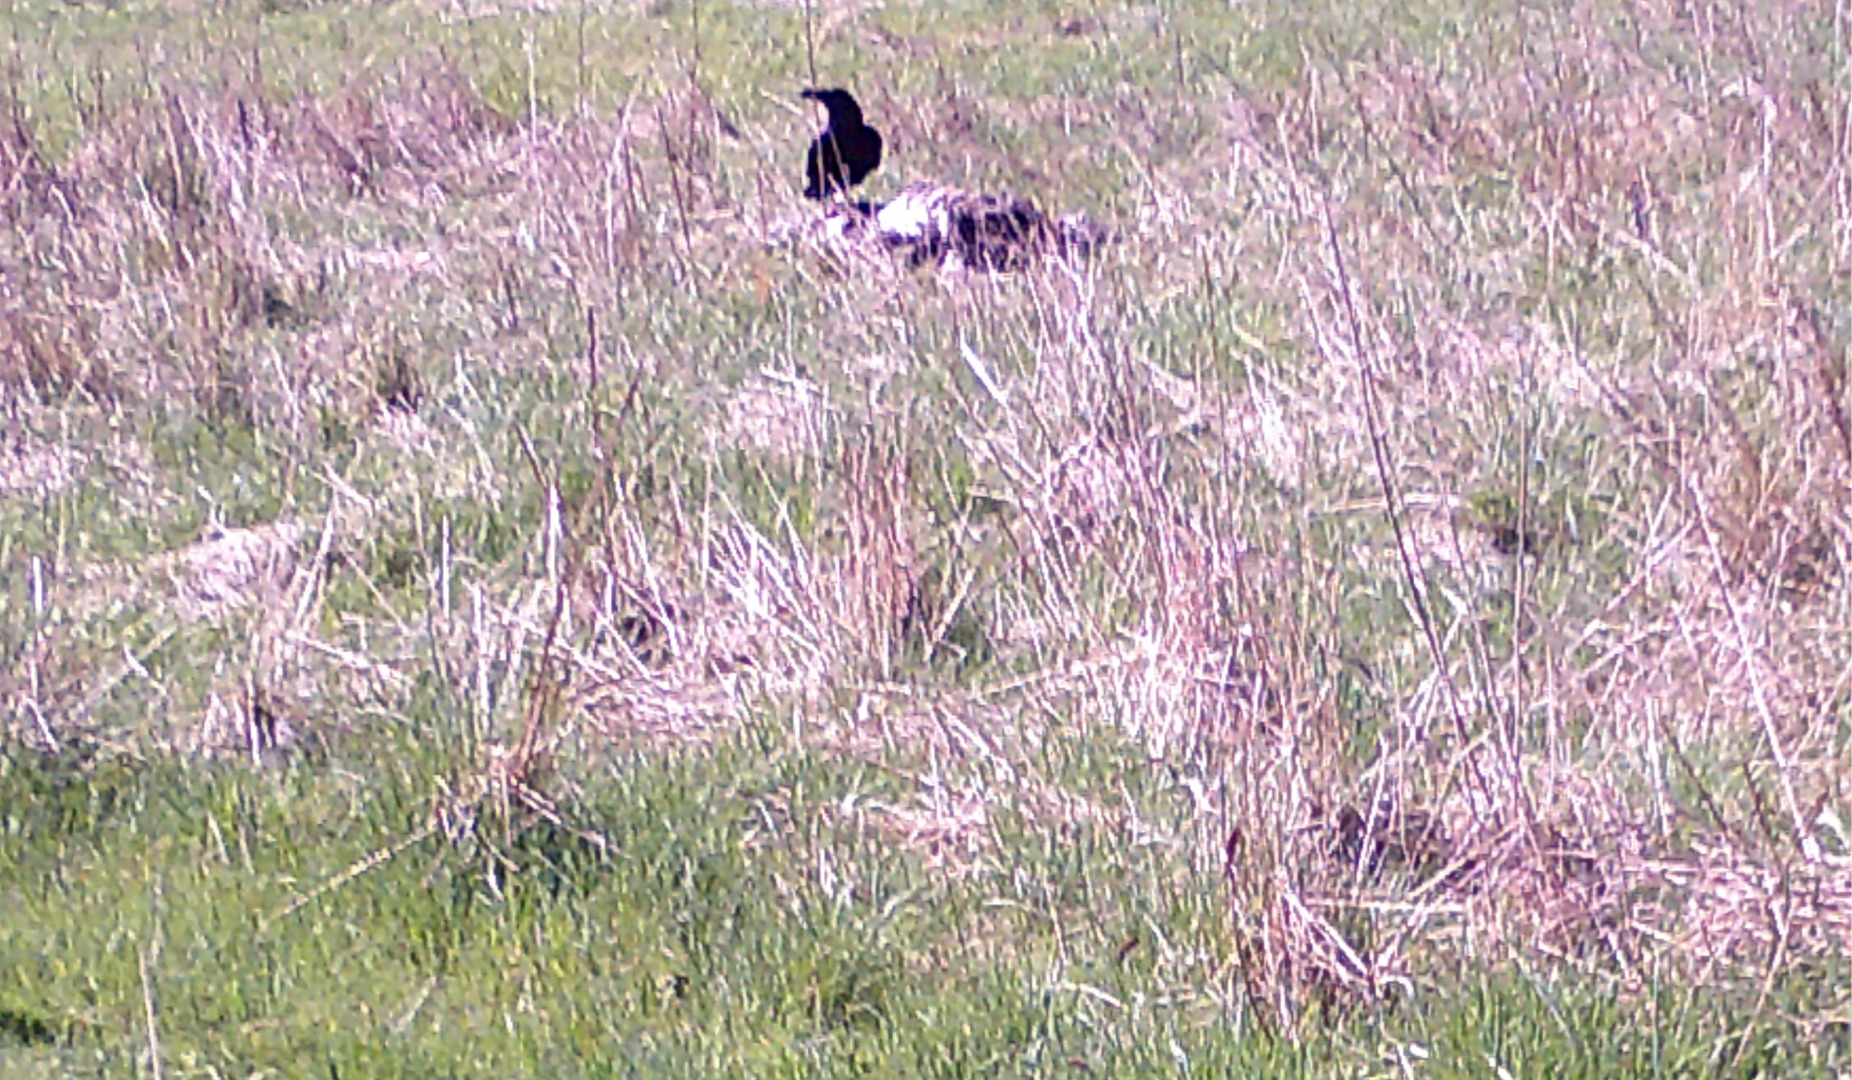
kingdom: Animalia
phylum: Chordata
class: Aves
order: Passeriformes
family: Corvidae
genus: Corvus
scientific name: Corvus corax
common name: Ravn
